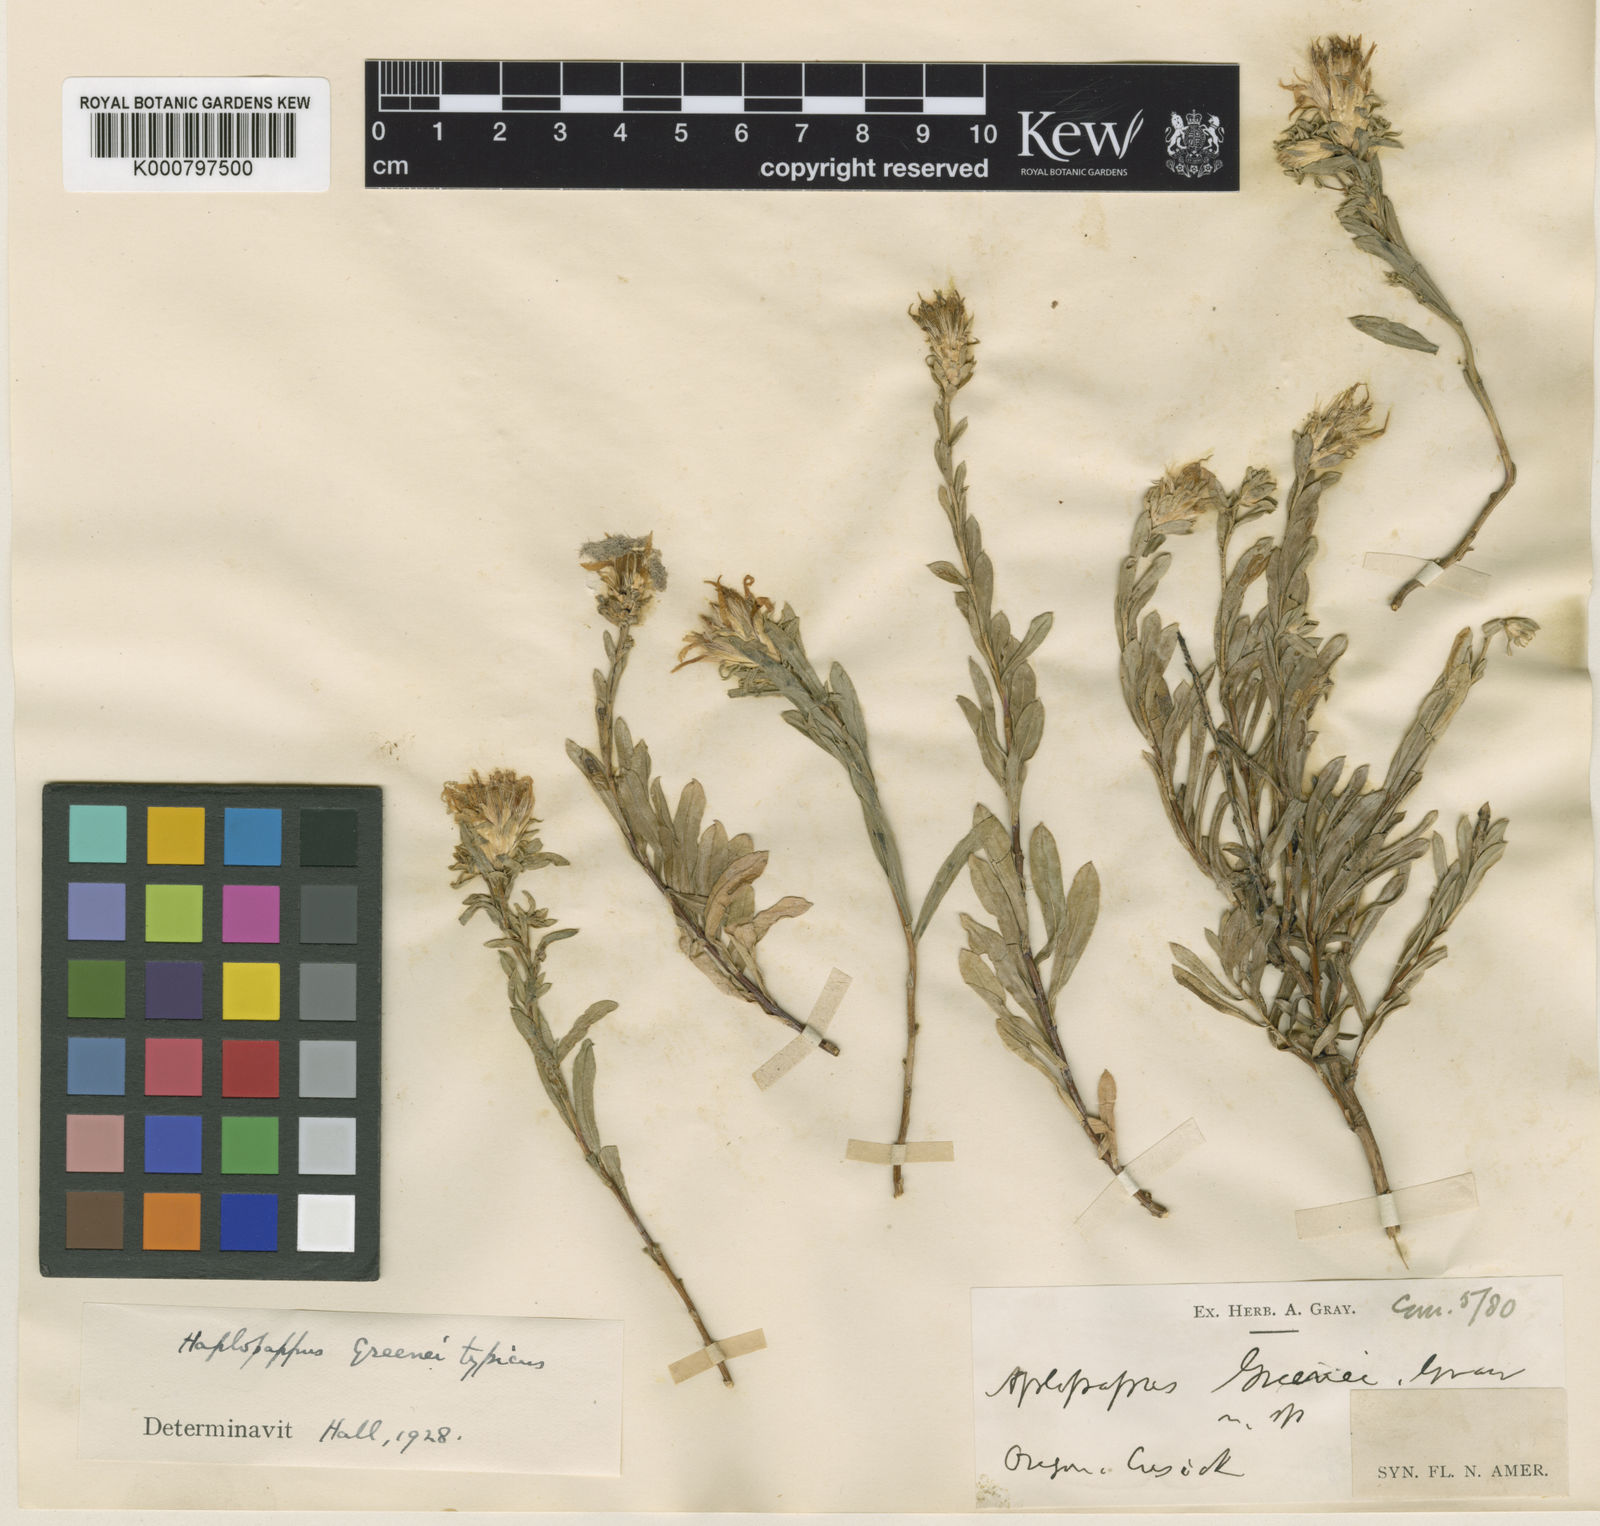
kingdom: Plantae
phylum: Tracheophyta
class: Magnoliopsida
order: Asterales
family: Asteraceae
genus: Ericameria
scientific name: Ericameria greenei
